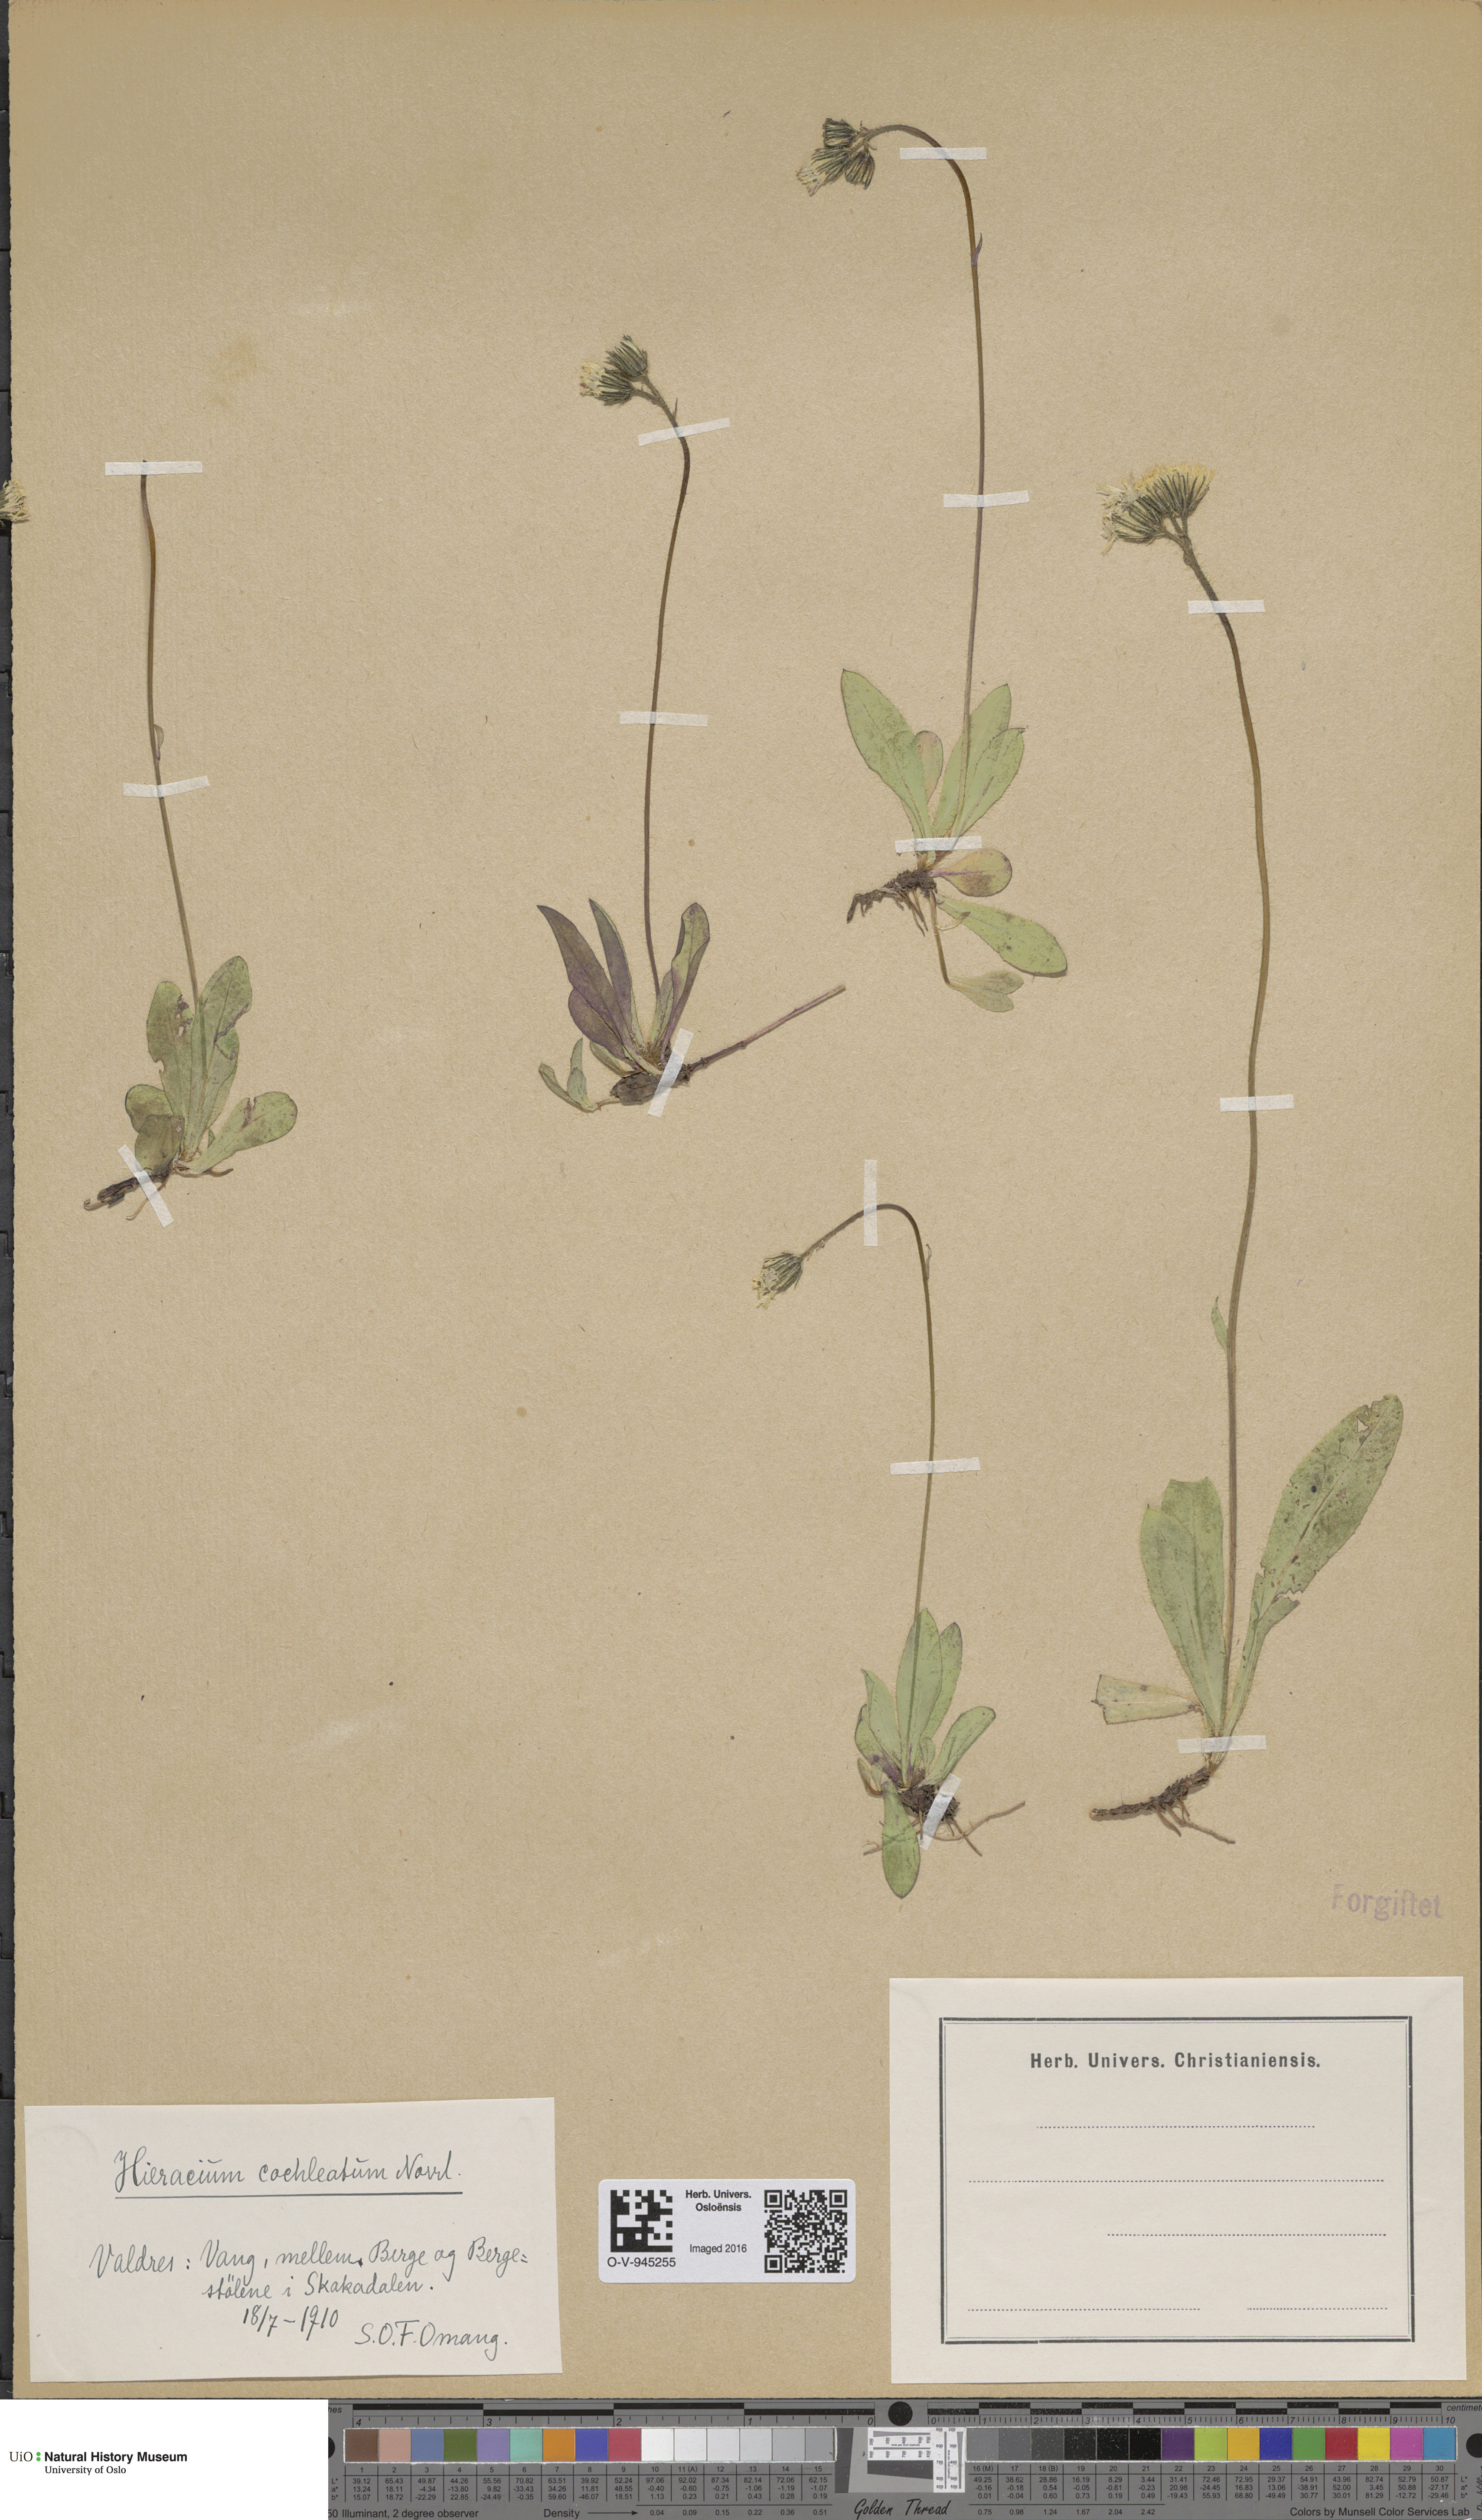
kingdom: Plantae
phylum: Tracheophyta
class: Magnoliopsida
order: Asterales
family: Asteraceae
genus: Pilosella
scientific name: Pilosella floribunda
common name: Glaucous hawkweed
